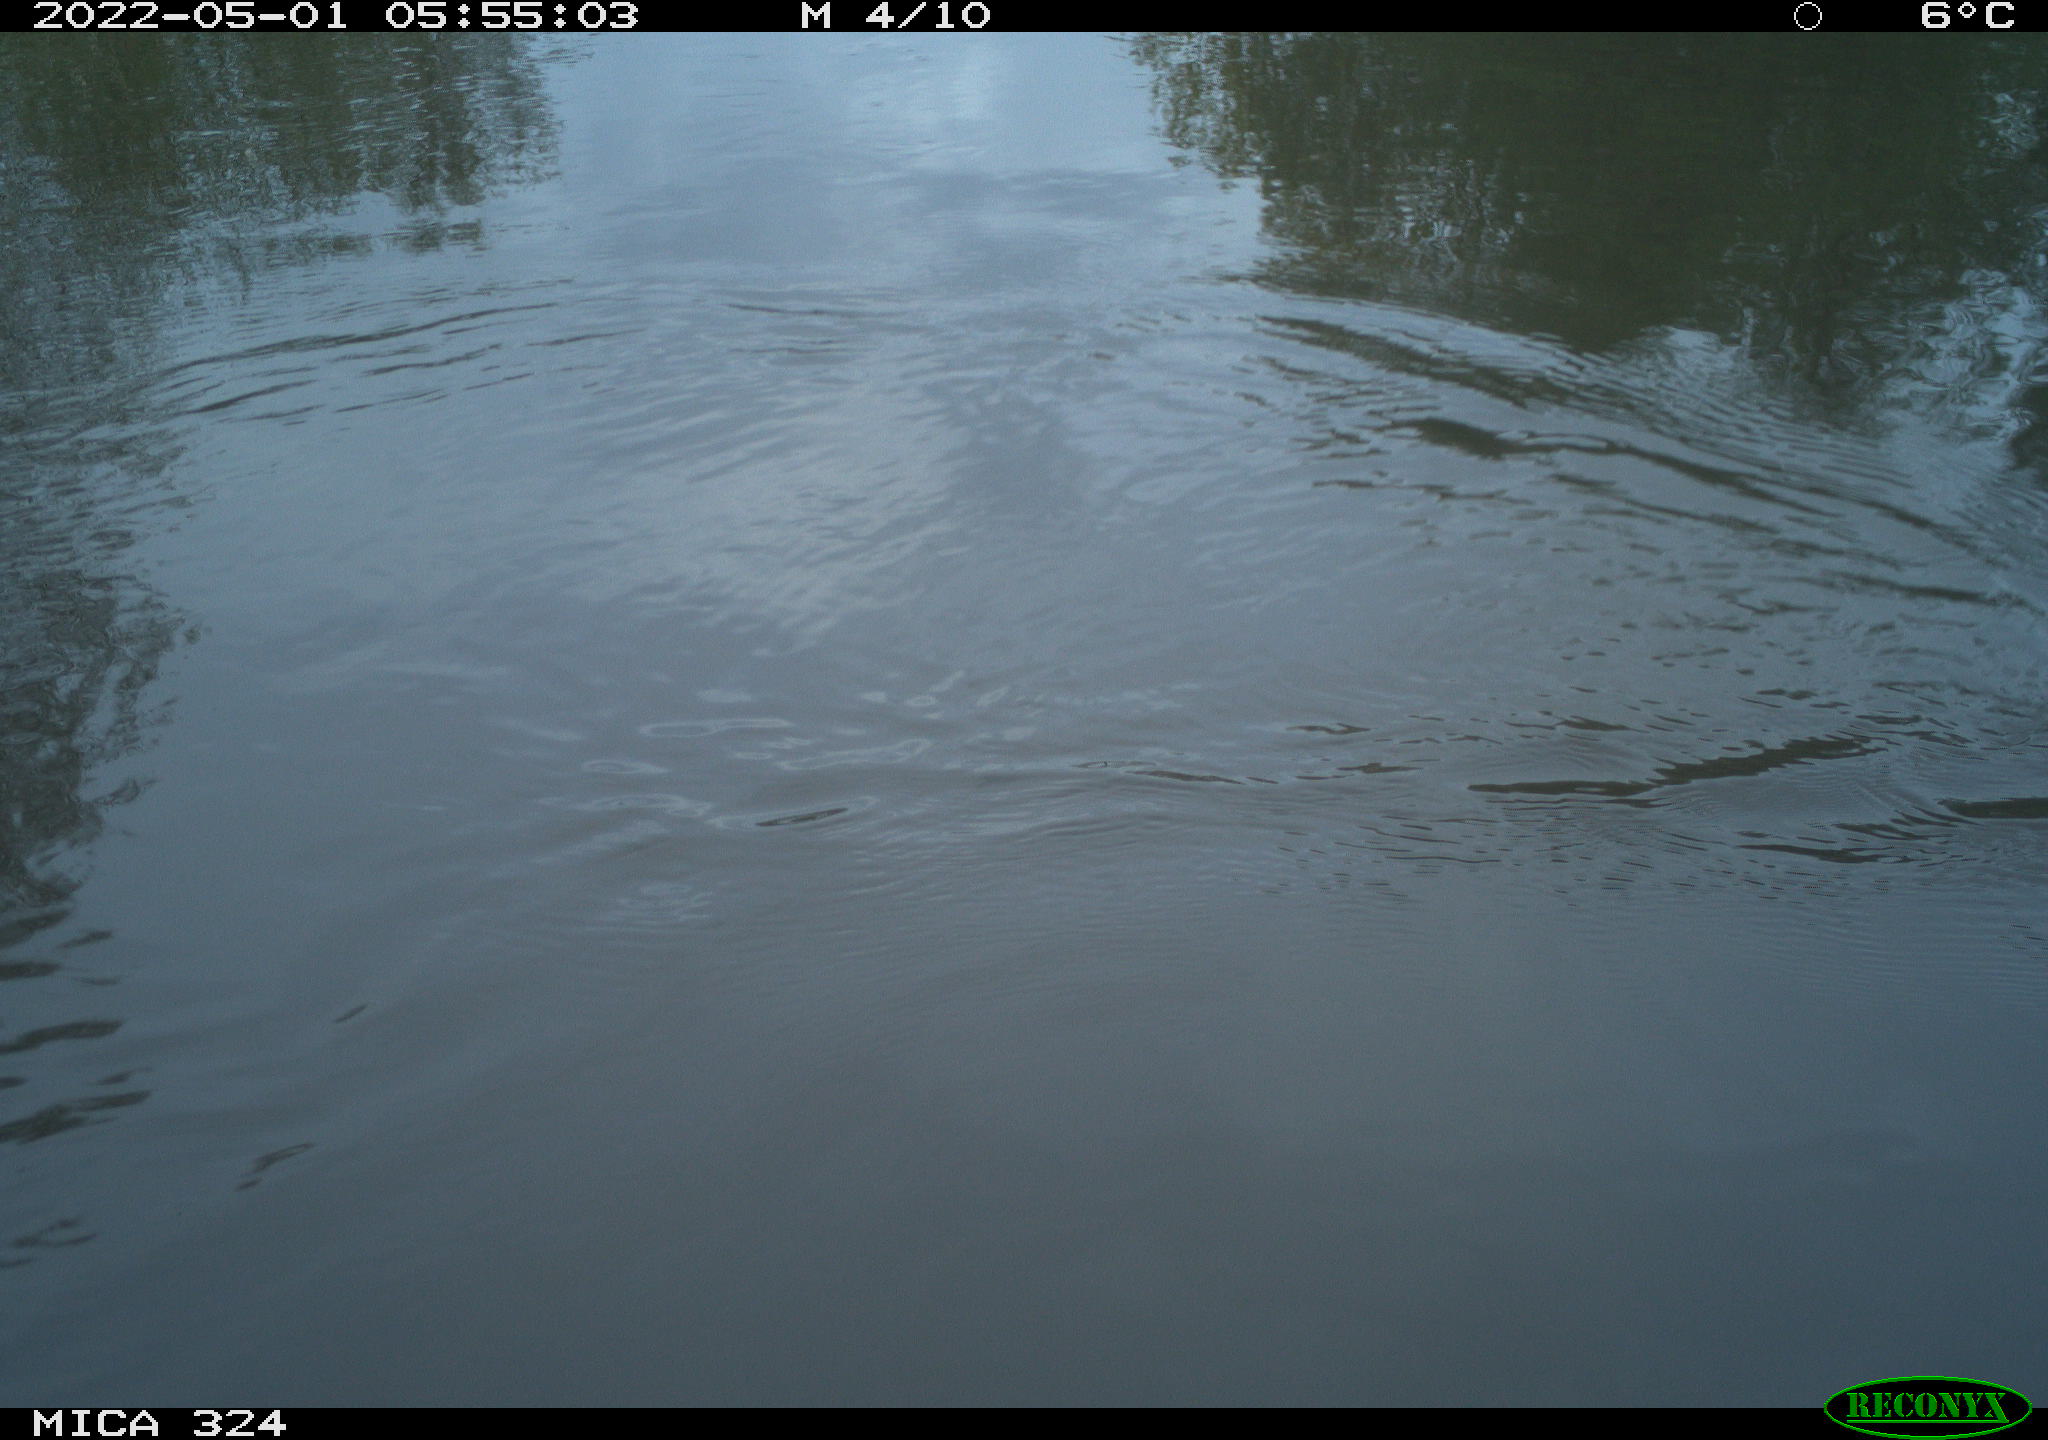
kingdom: Animalia
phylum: Chordata
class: Aves
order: Gruiformes
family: Rallidae
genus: Gallinula
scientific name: Gallinula chloropus
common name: Common moorhen
